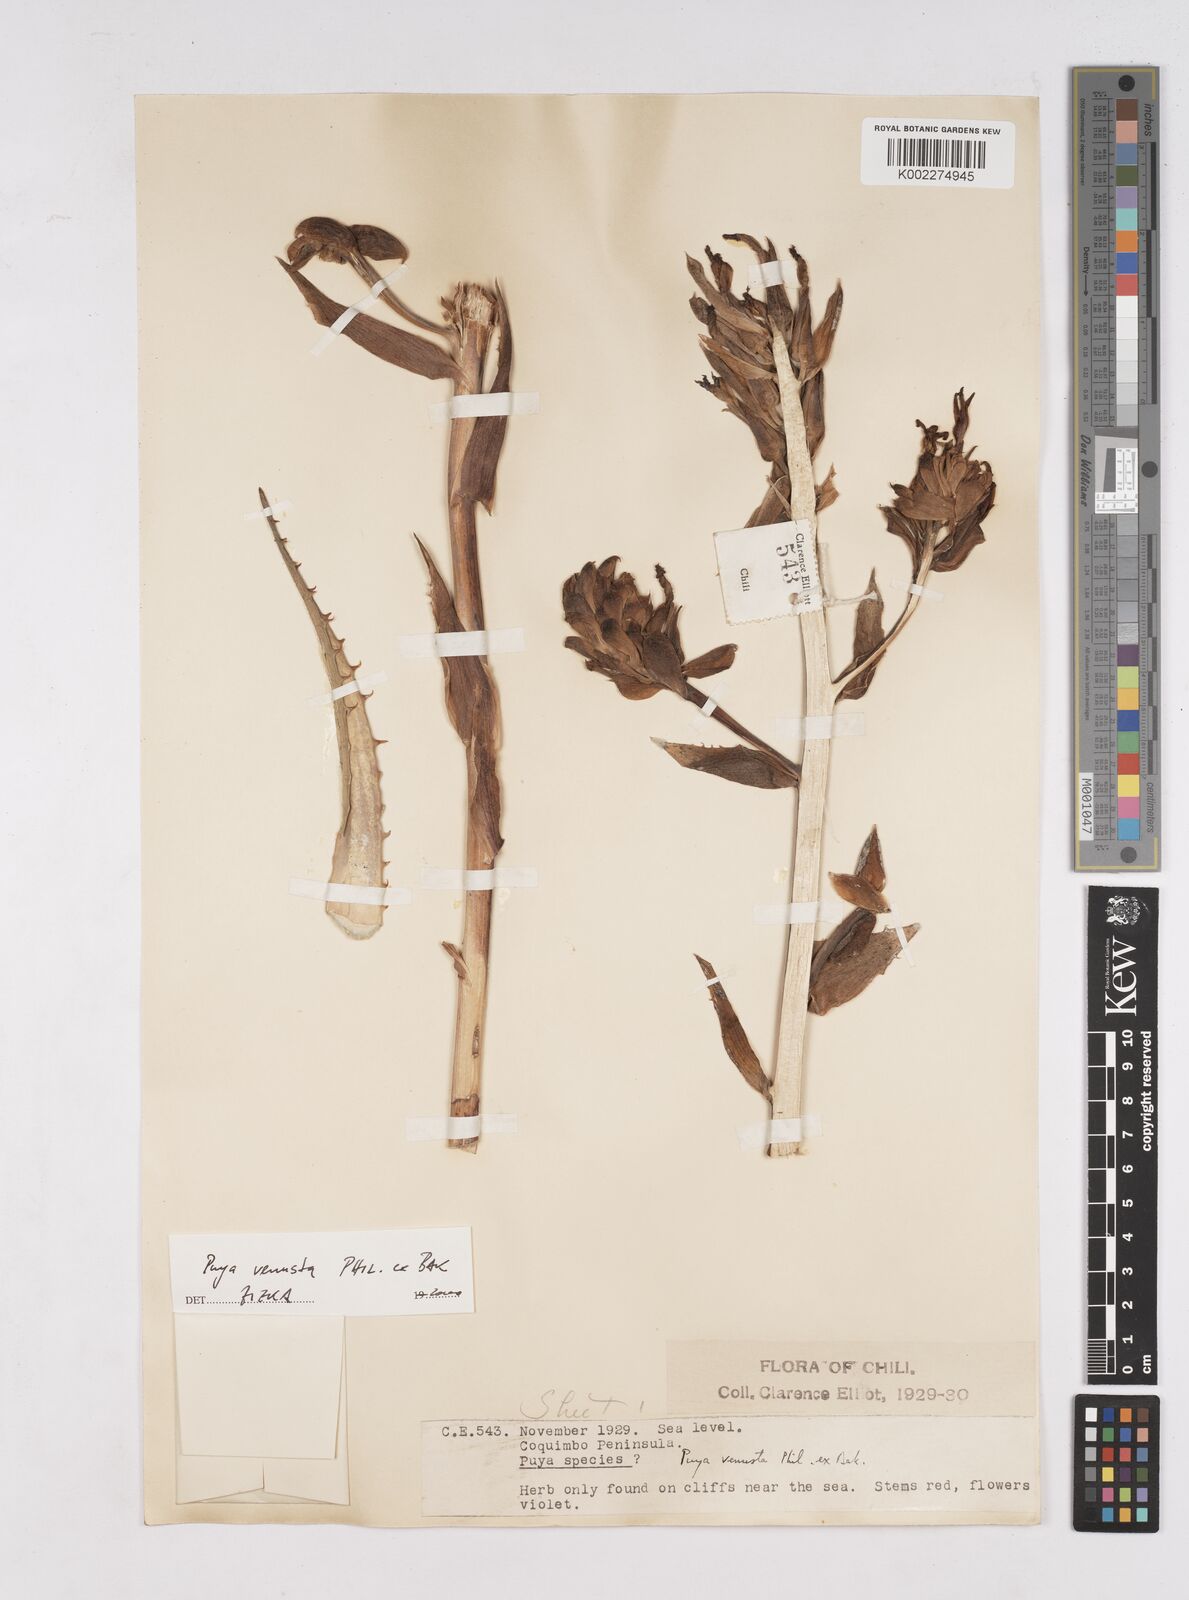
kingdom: Plantae
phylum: Tracheophyta
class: Liliopsida
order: Poales
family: Bromeliaceae
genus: Puya
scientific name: Puya venusta
